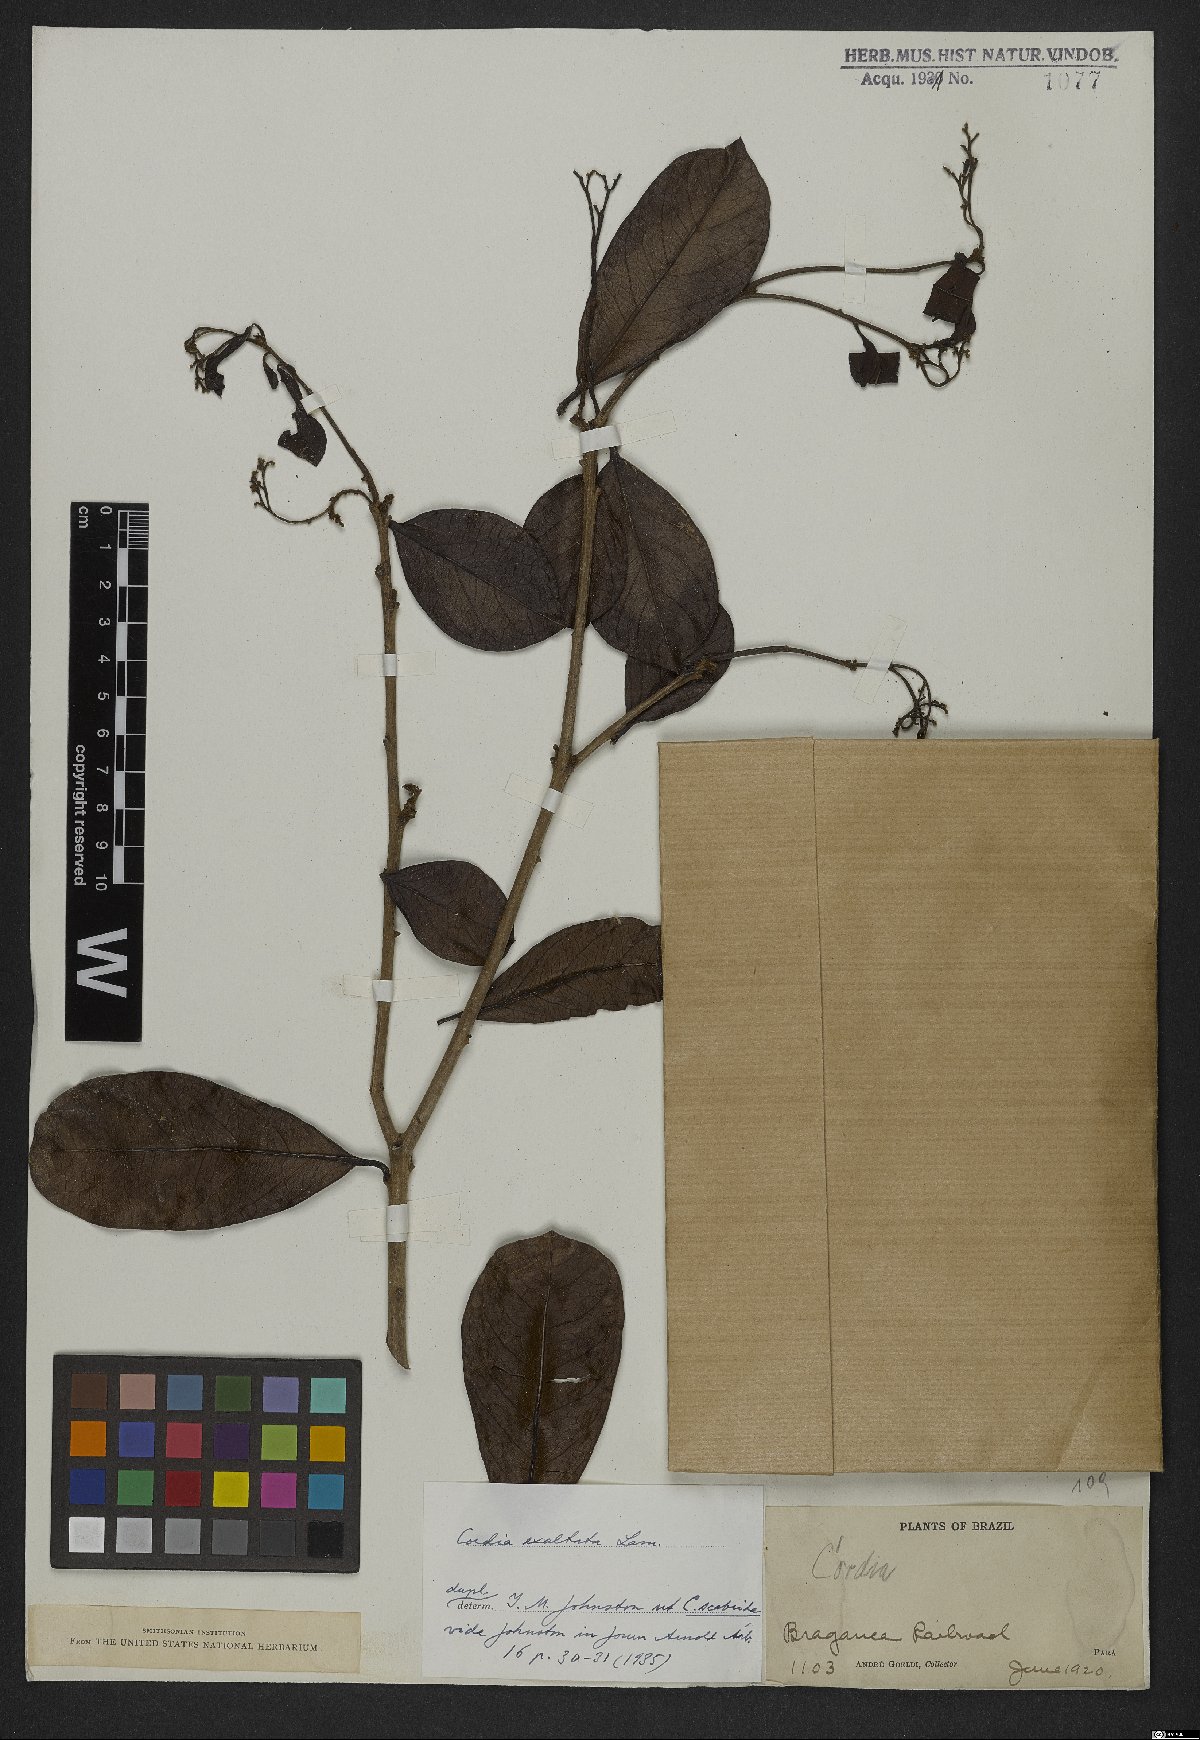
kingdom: Plantae
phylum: Tracheophyta
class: Magnoliopsida
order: Boraginales
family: Cordiaceae
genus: Cordia
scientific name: Cordia exaltata
